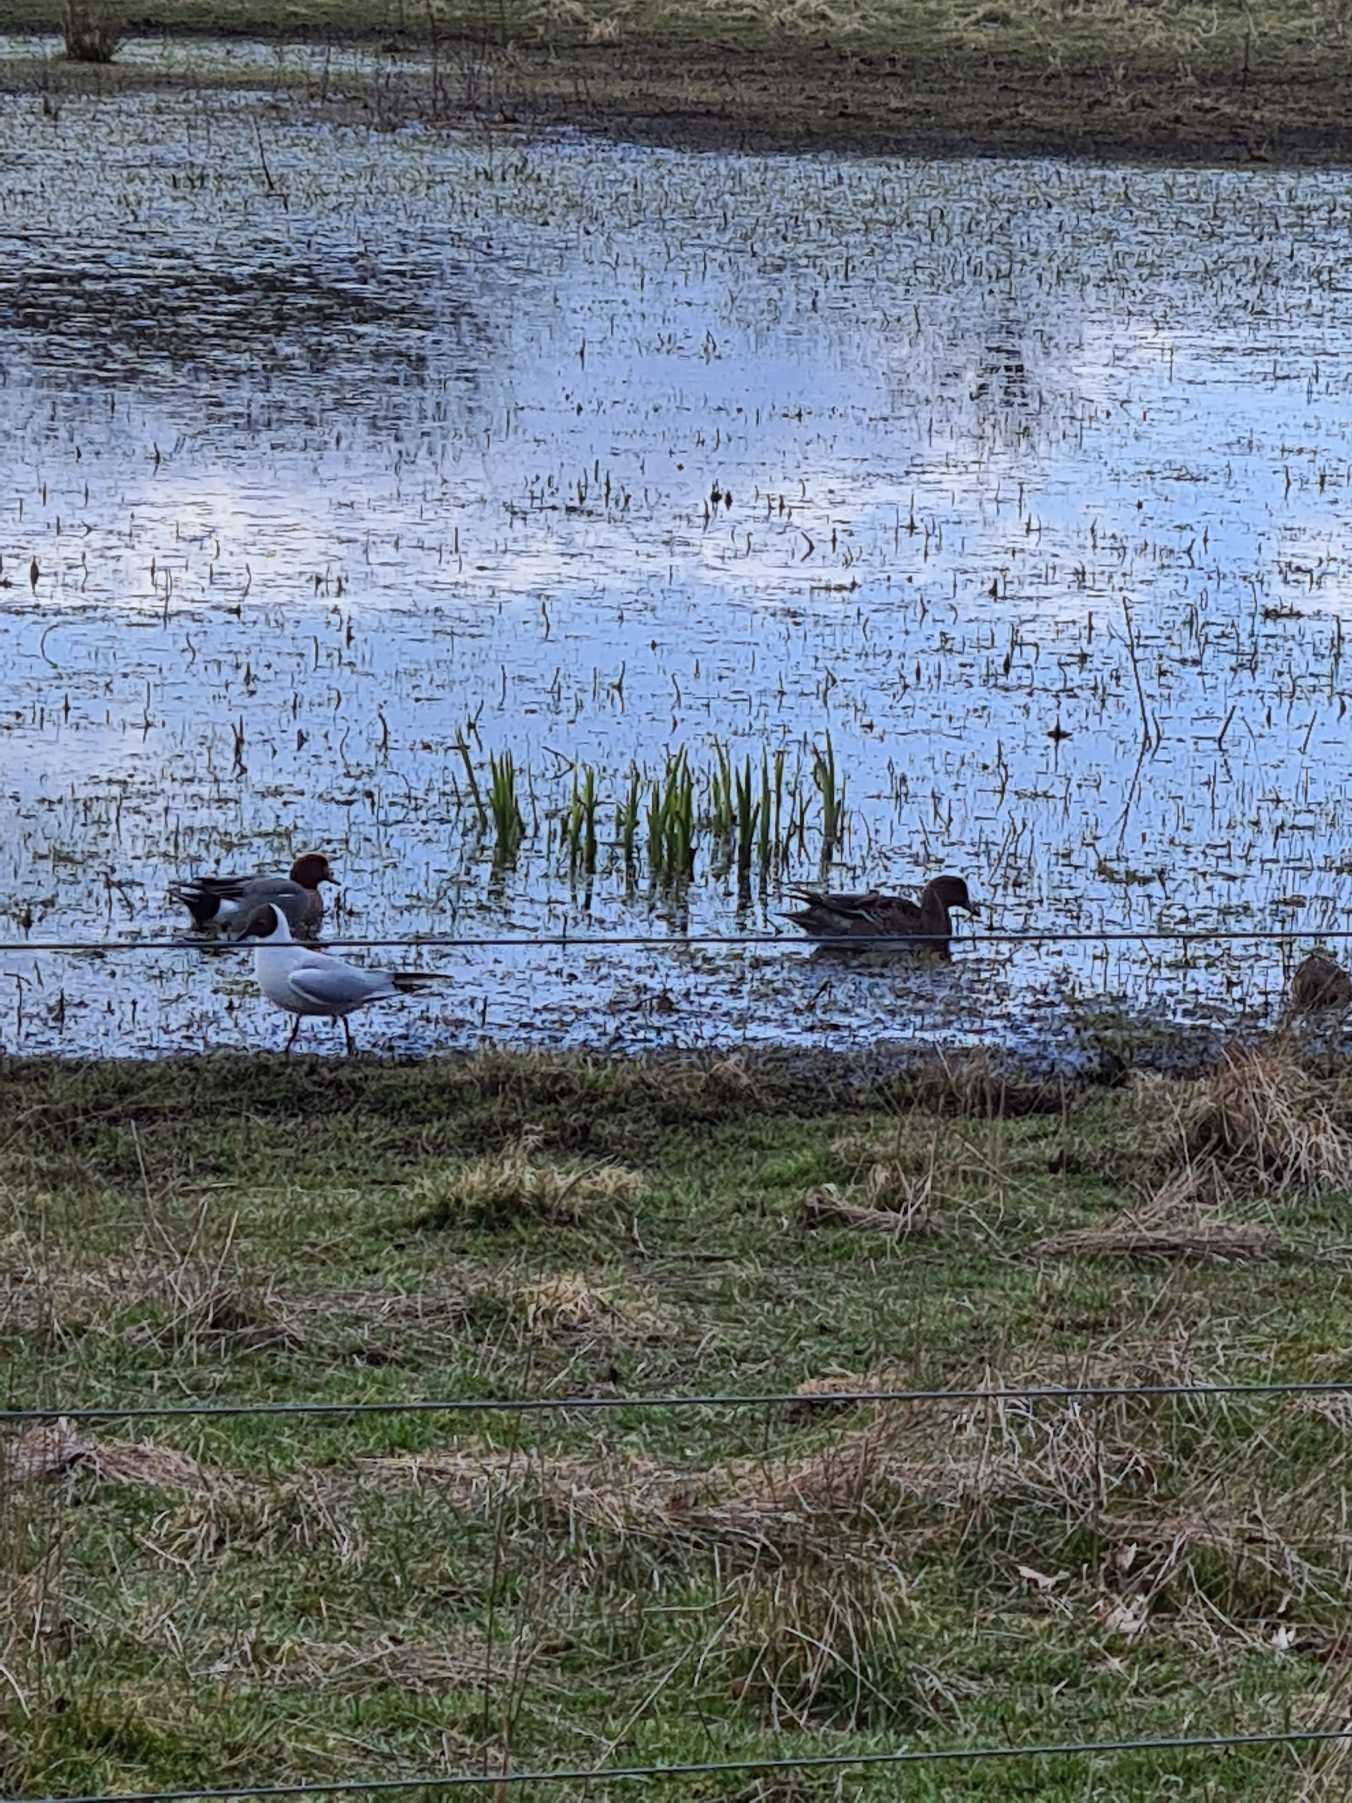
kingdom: Animalia
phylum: Chordata
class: Aves
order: Anseriformes
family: Anatidae
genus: Mareca
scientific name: Mareca penelope
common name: Pibeand
